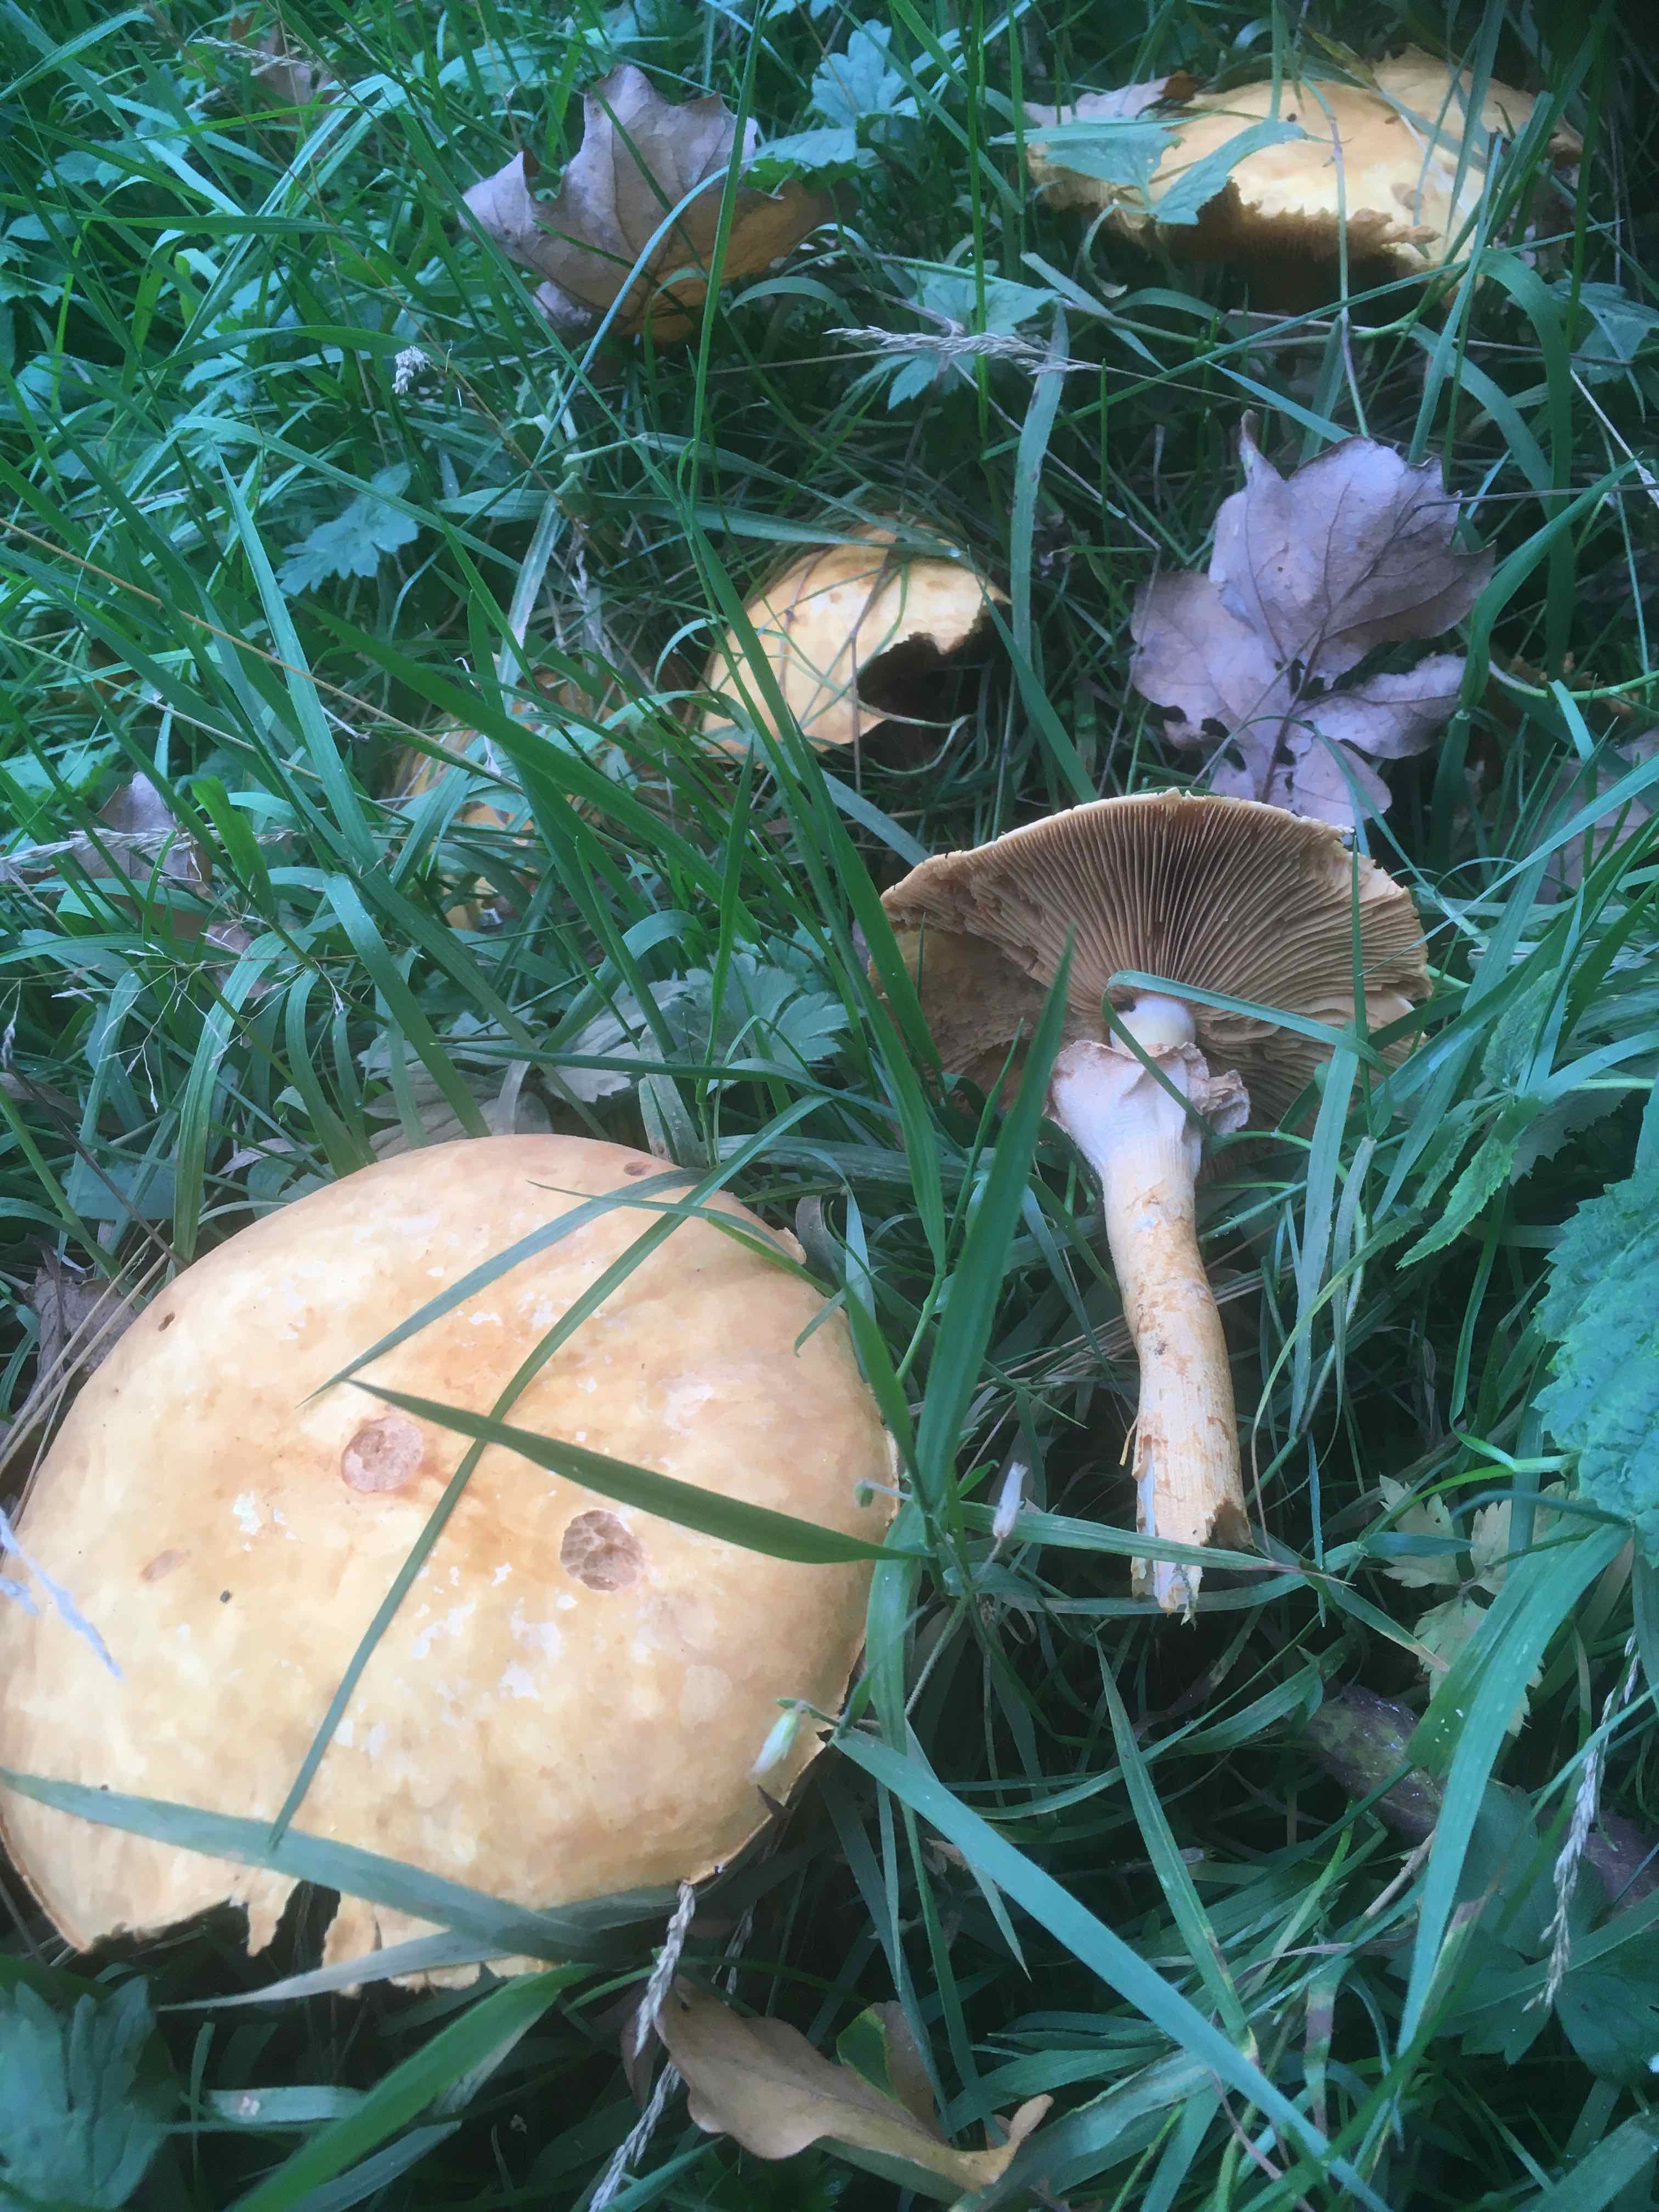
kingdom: Fungi
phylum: Basidiomycota
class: Agaricomycetes
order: Agaricales
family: Tricholomataceae
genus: Phaeolepiota
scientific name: Phaeolepiota aurea
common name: gyldenhat
